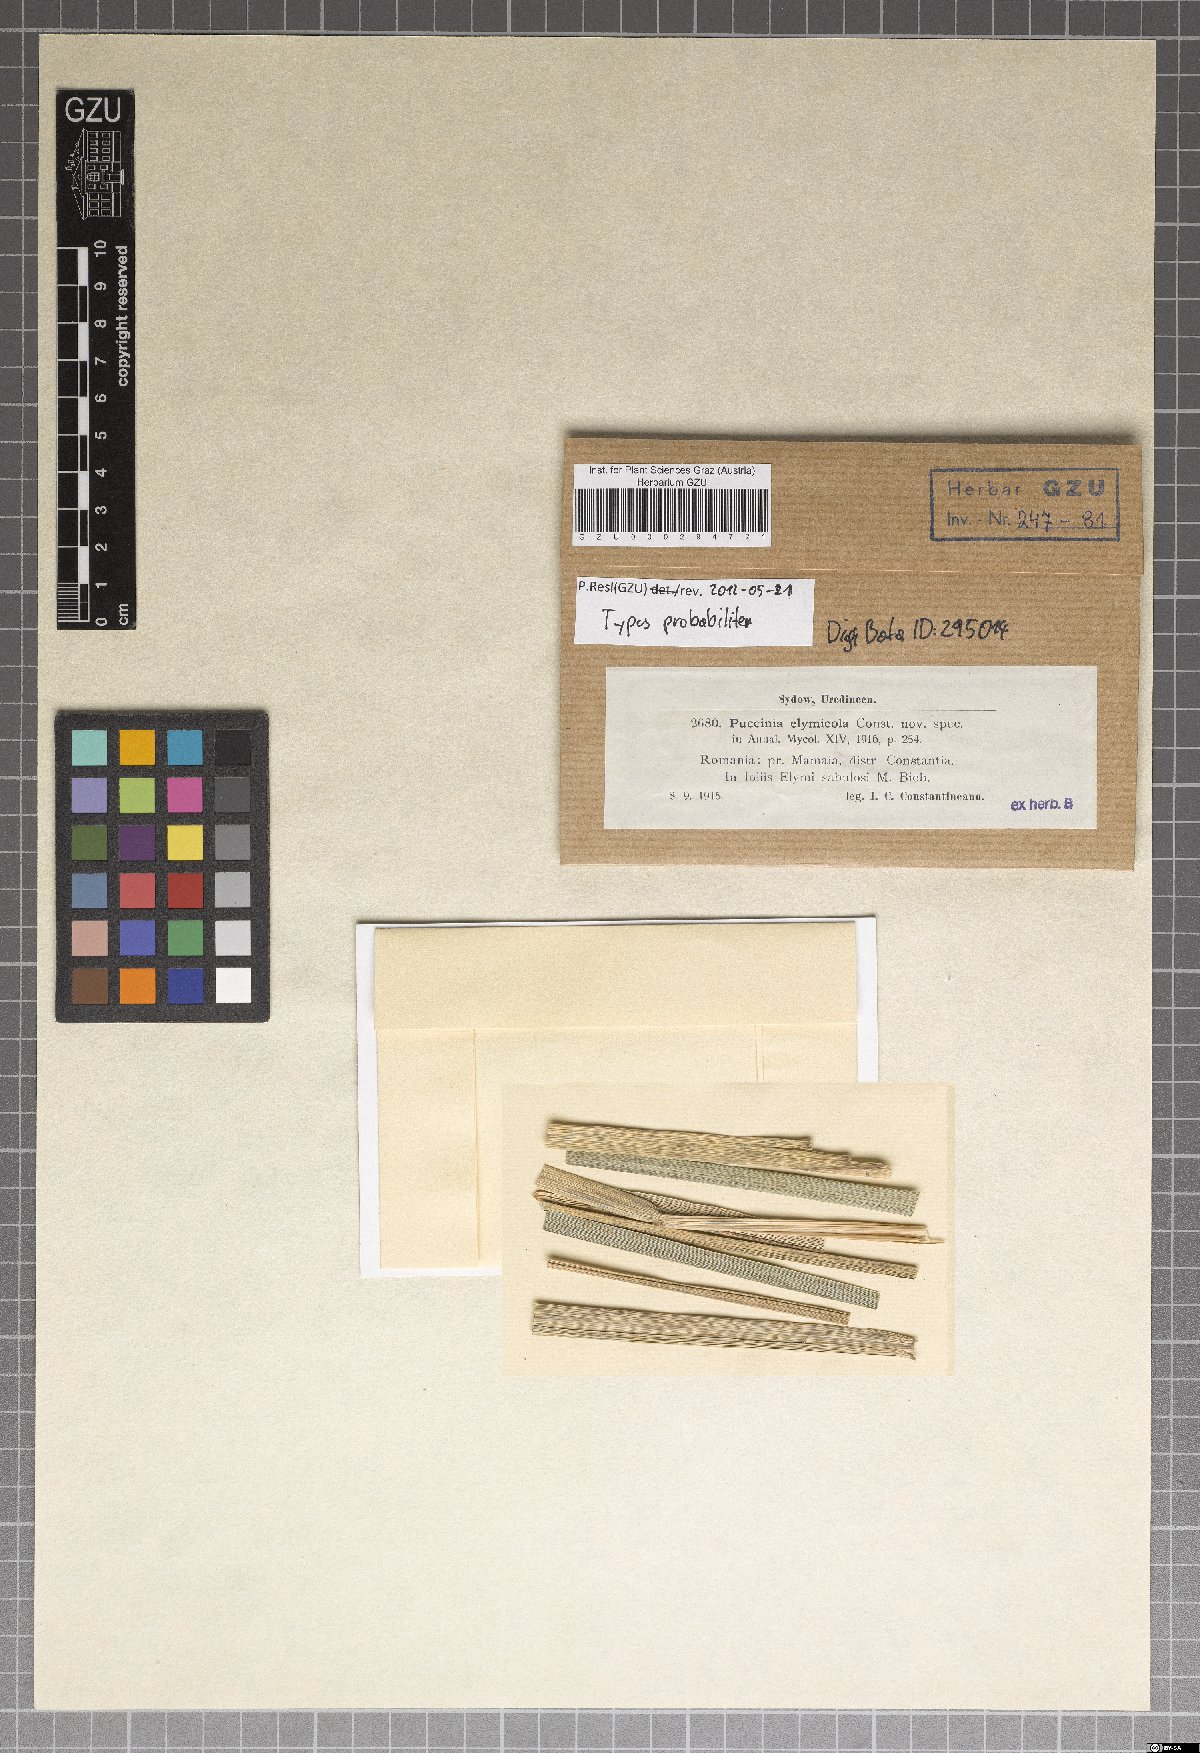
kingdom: Fungi
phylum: Basidiomycota
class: Pucciniomycetes
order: Pucciniales
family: Pucciniaceae
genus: Puccinia
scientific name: Puccinia elymicola
